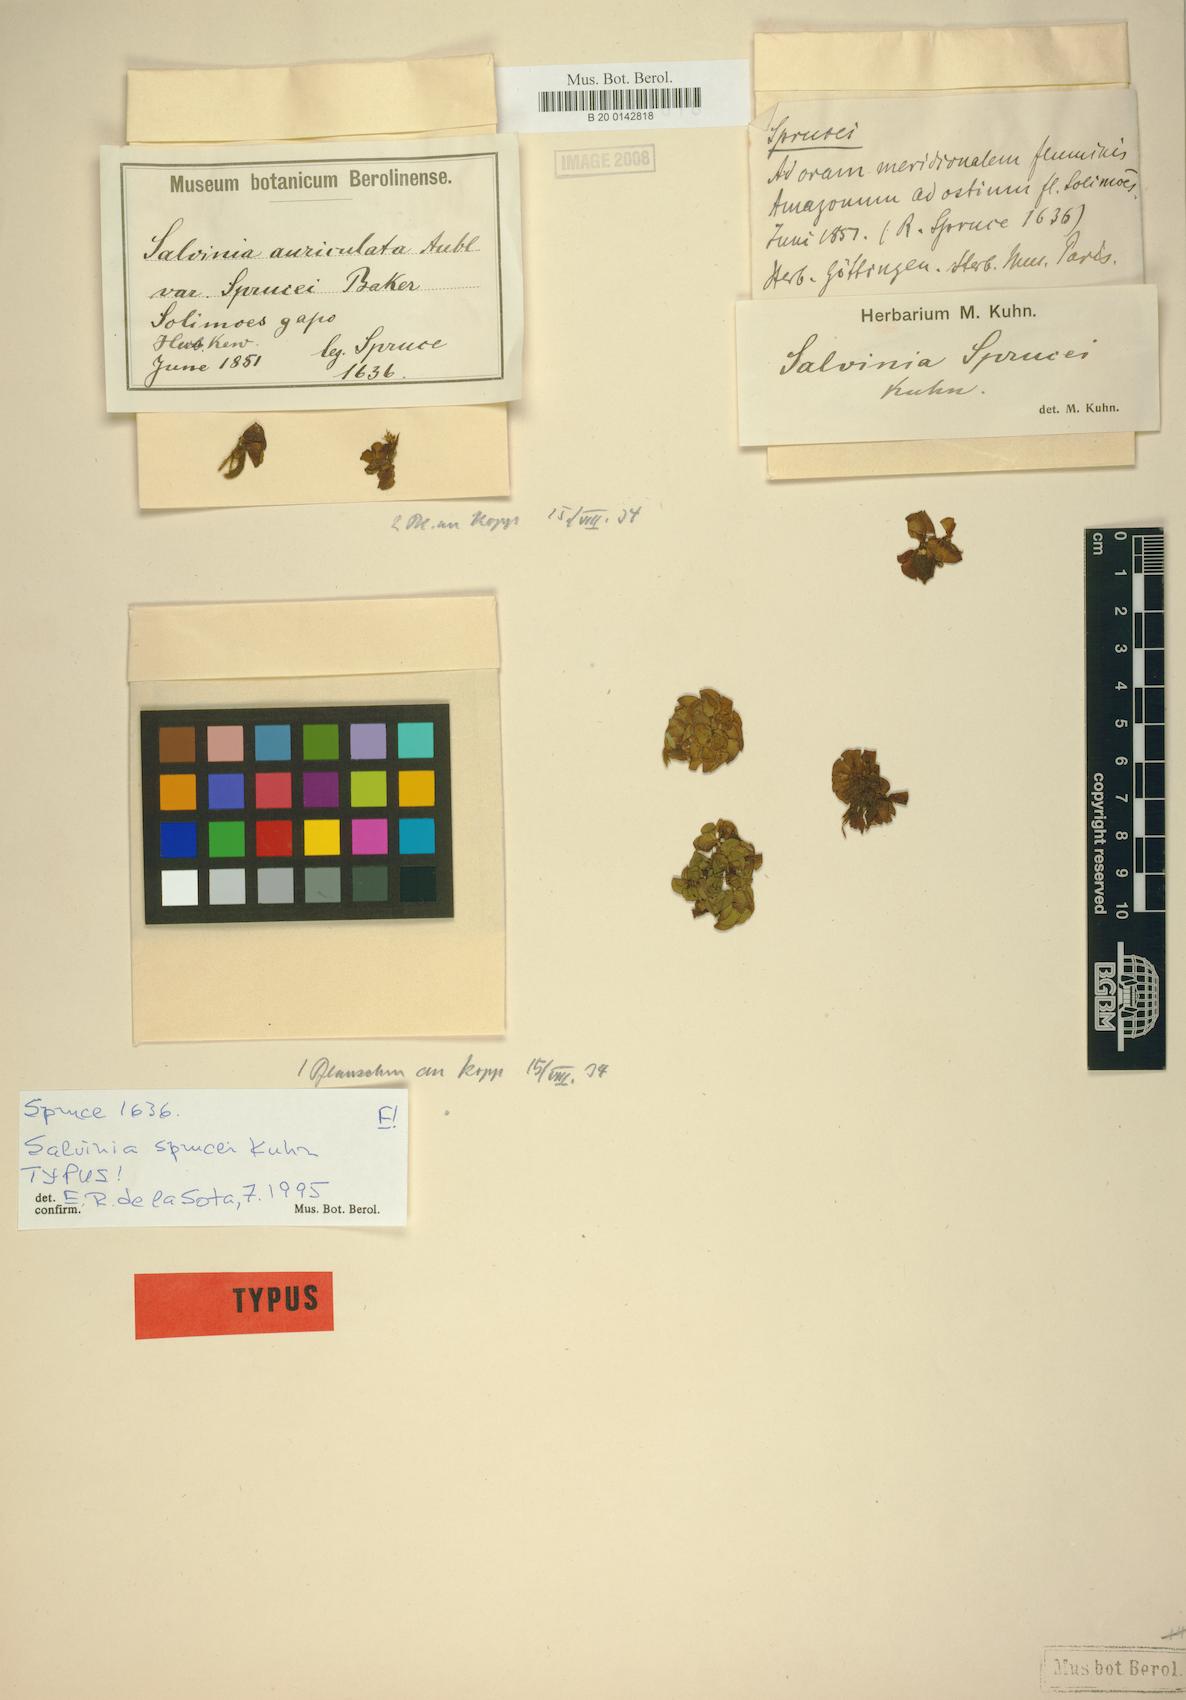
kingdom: Plantae
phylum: Tracheophyta
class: Polypodiopsida
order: Salviniales
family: Salviniaceae
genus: Salvinia
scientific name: Salvinia sprucei
